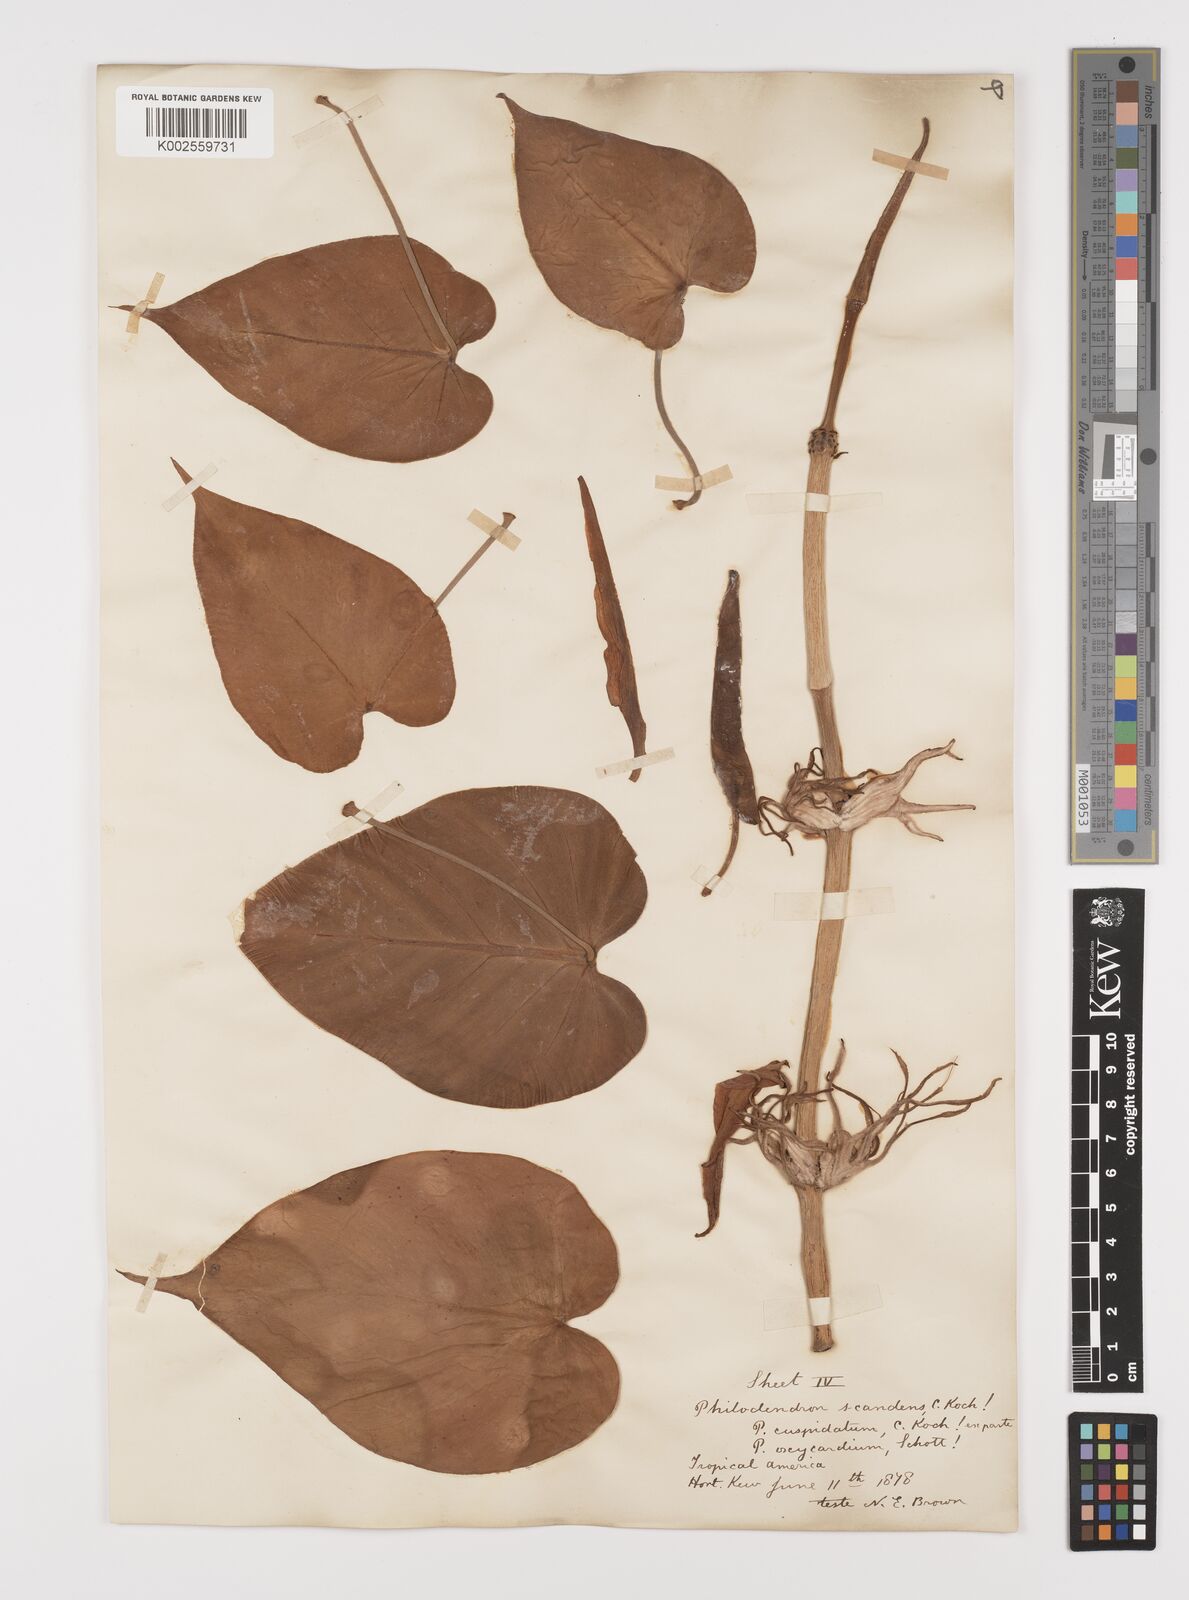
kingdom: Plantae
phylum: Tracheophyta
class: Liliopsida
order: Alismatales
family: Araceae
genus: Philodendron
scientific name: Philodendron hederaceum
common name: Vilevine
